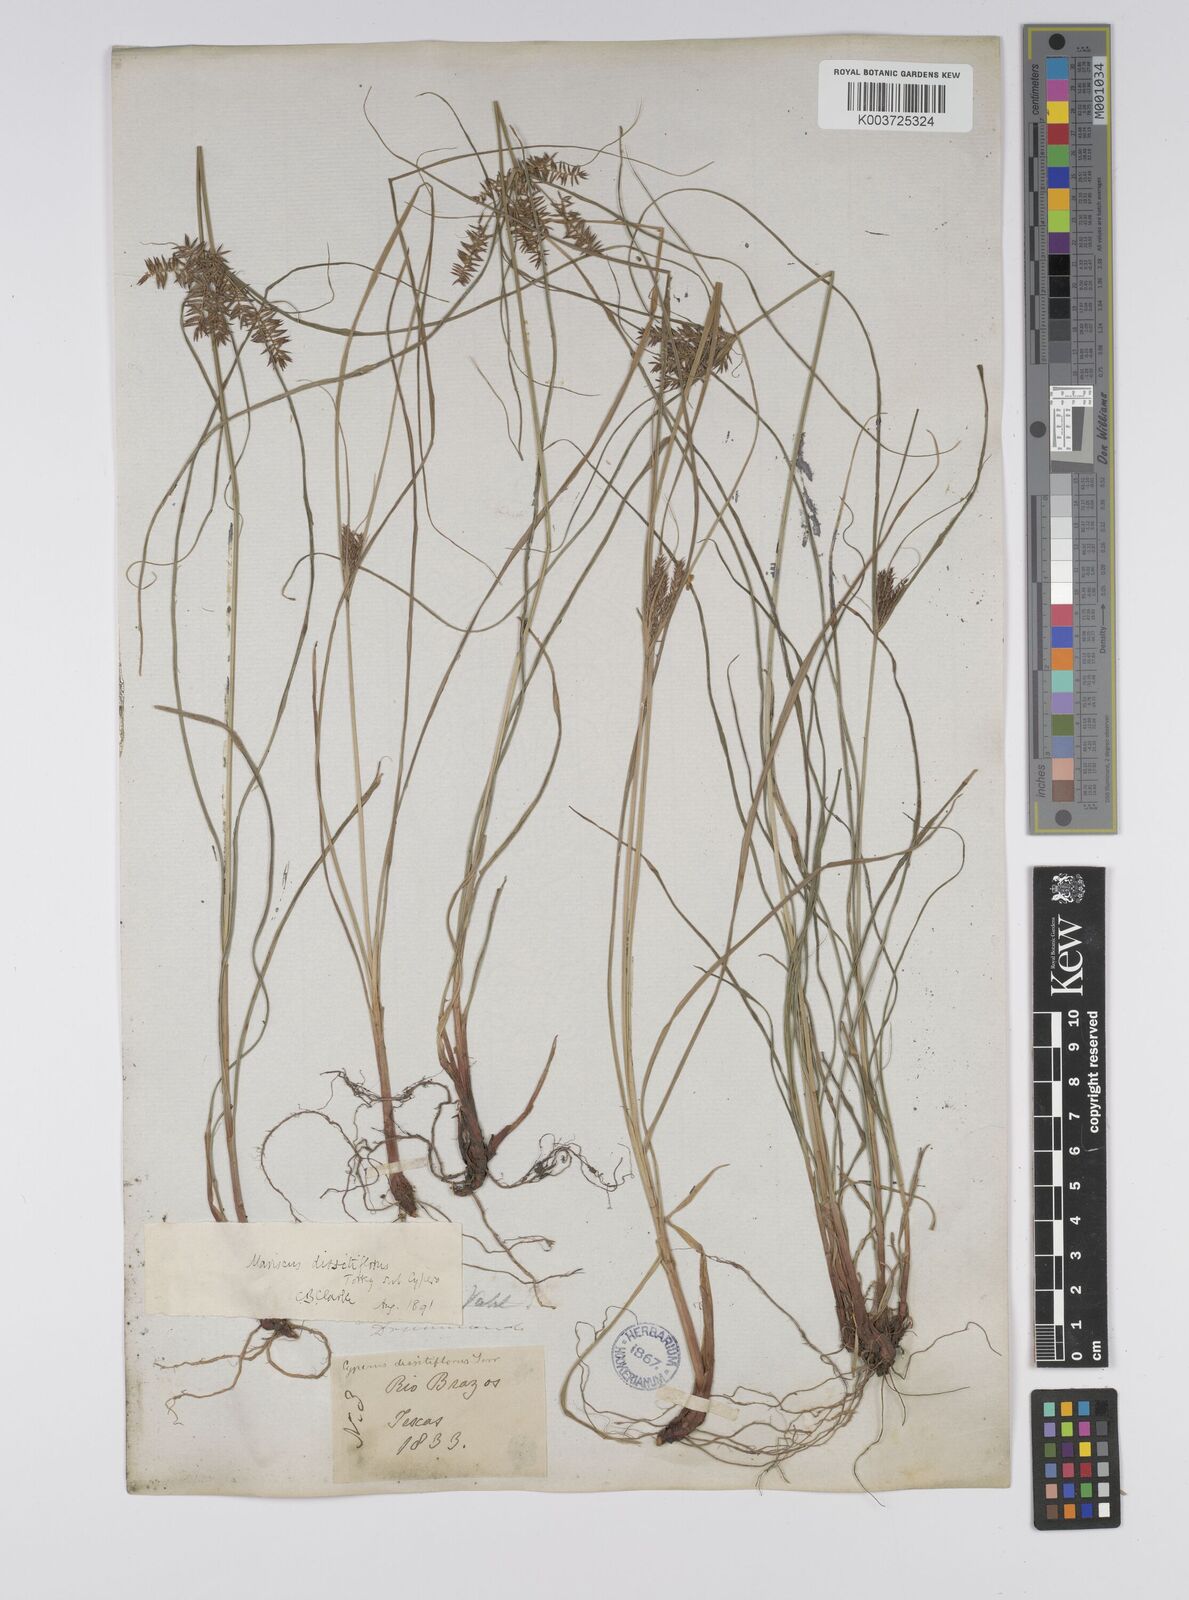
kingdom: Plantae
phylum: Tracheophyta
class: Liliopsida
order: Poales
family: Cyperaceae
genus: Cyperus
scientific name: Cyperus
